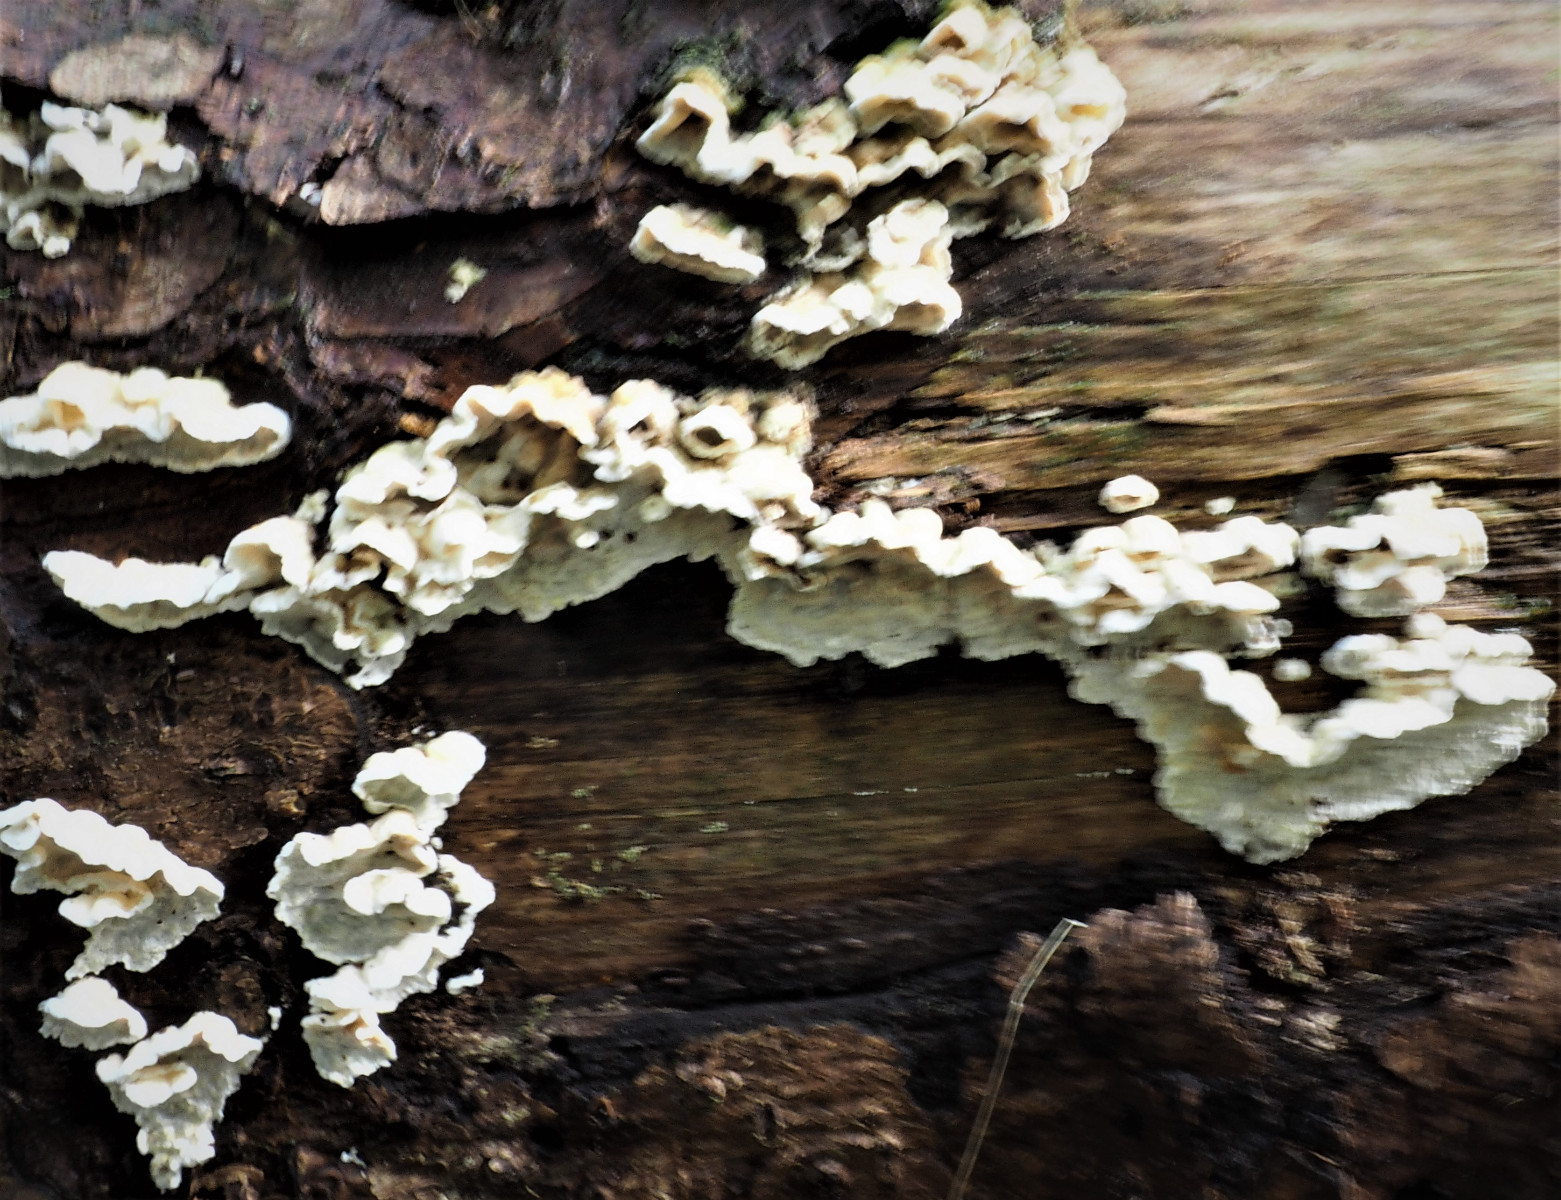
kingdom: Fungi
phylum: Basidiomycota
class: Agaricomycetes
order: Polyporales
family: Incrustoporiaceae
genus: Skeletocutis
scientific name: Skeletocutis amorpha
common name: orange krystalporesvamp
